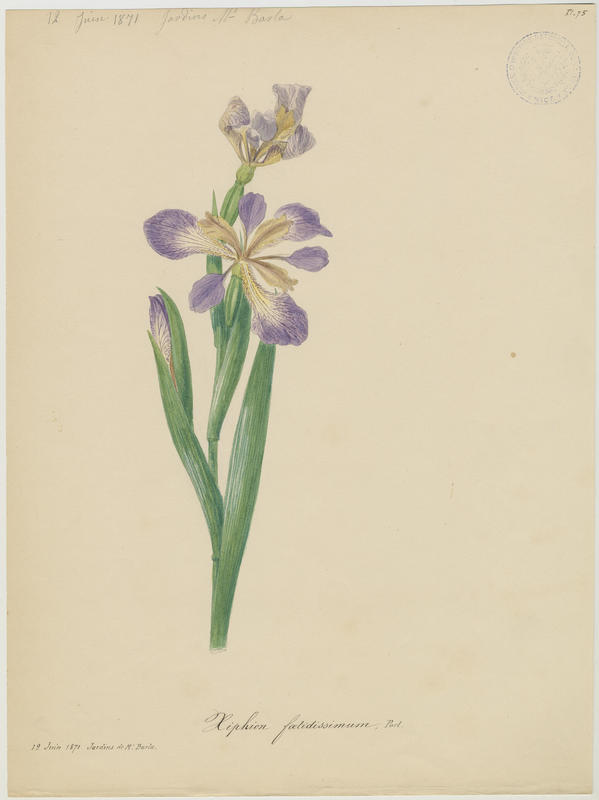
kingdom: Plantae
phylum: Tracheophyta
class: Liliopsida
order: Asparagales
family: Iridaceae
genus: Iris
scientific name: Iris foetidissima
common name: Stinking iris
